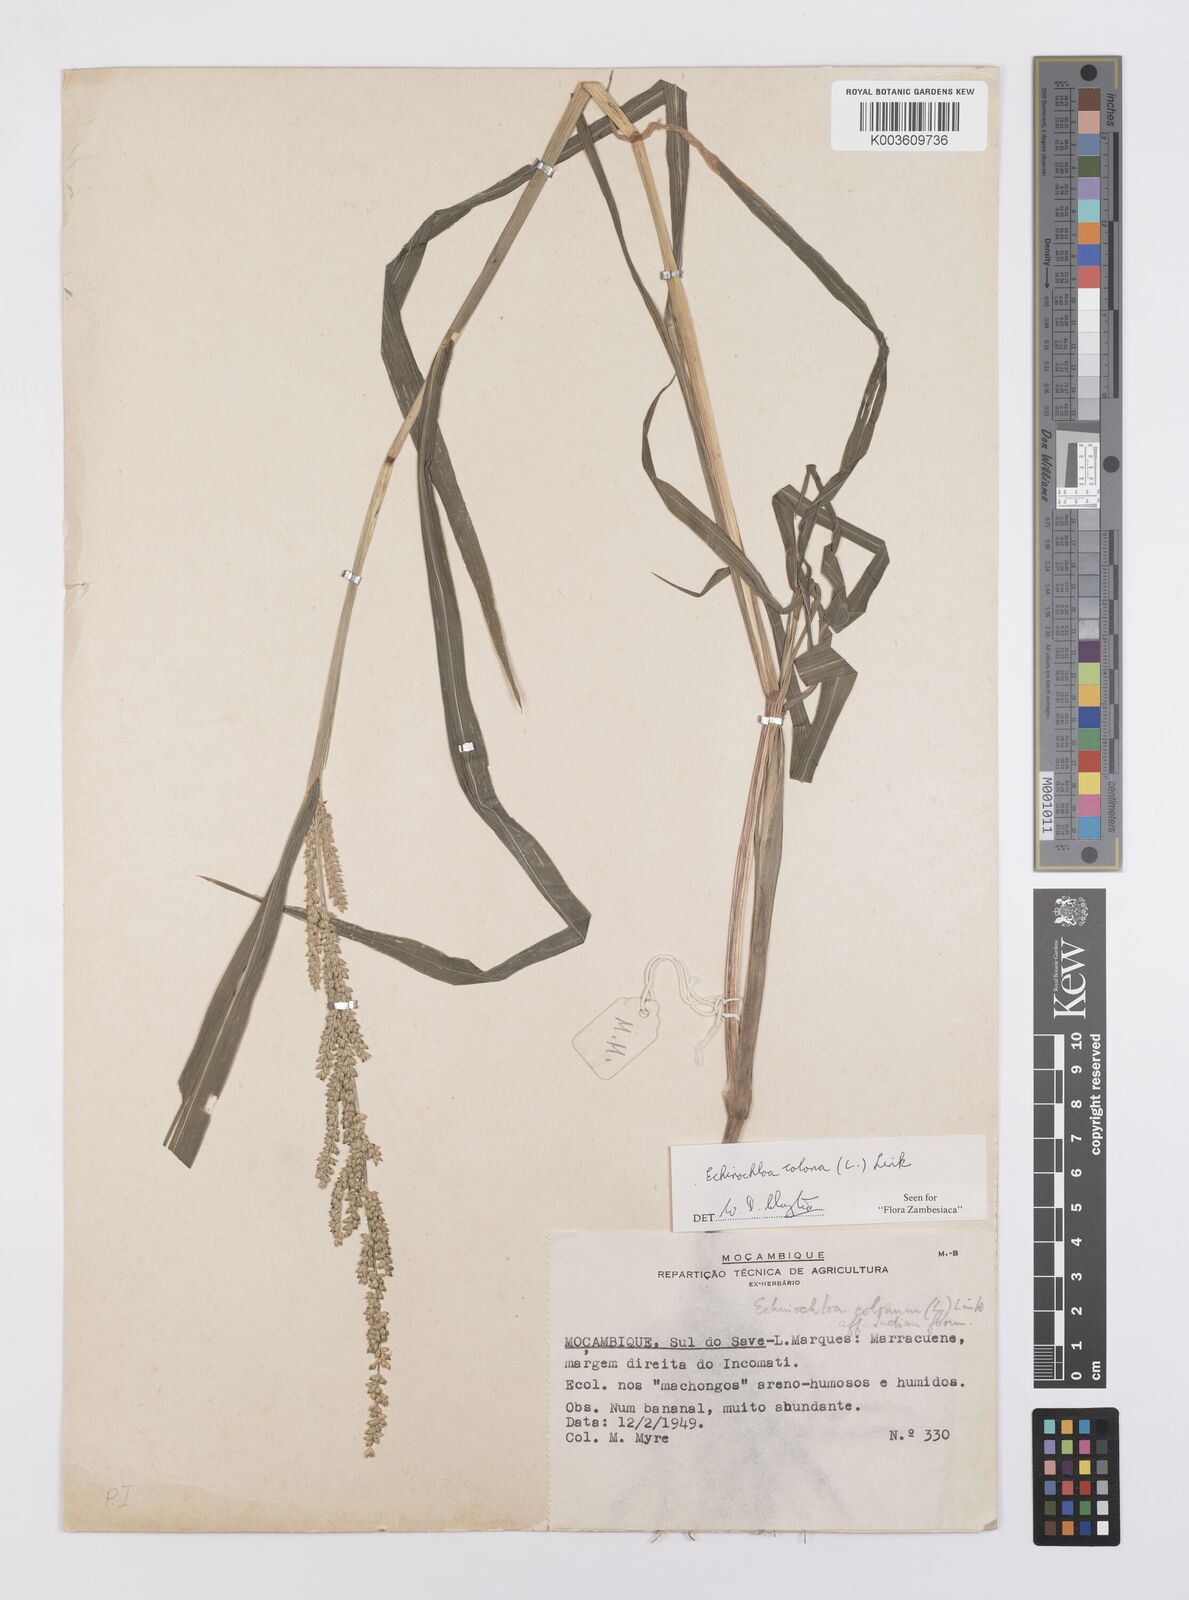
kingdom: Plantae
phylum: Tracheophyta
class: Liliopsida
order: Poales
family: Poaceae
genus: Echinochloa
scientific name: Echinochloa colonum
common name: Jungle rice
